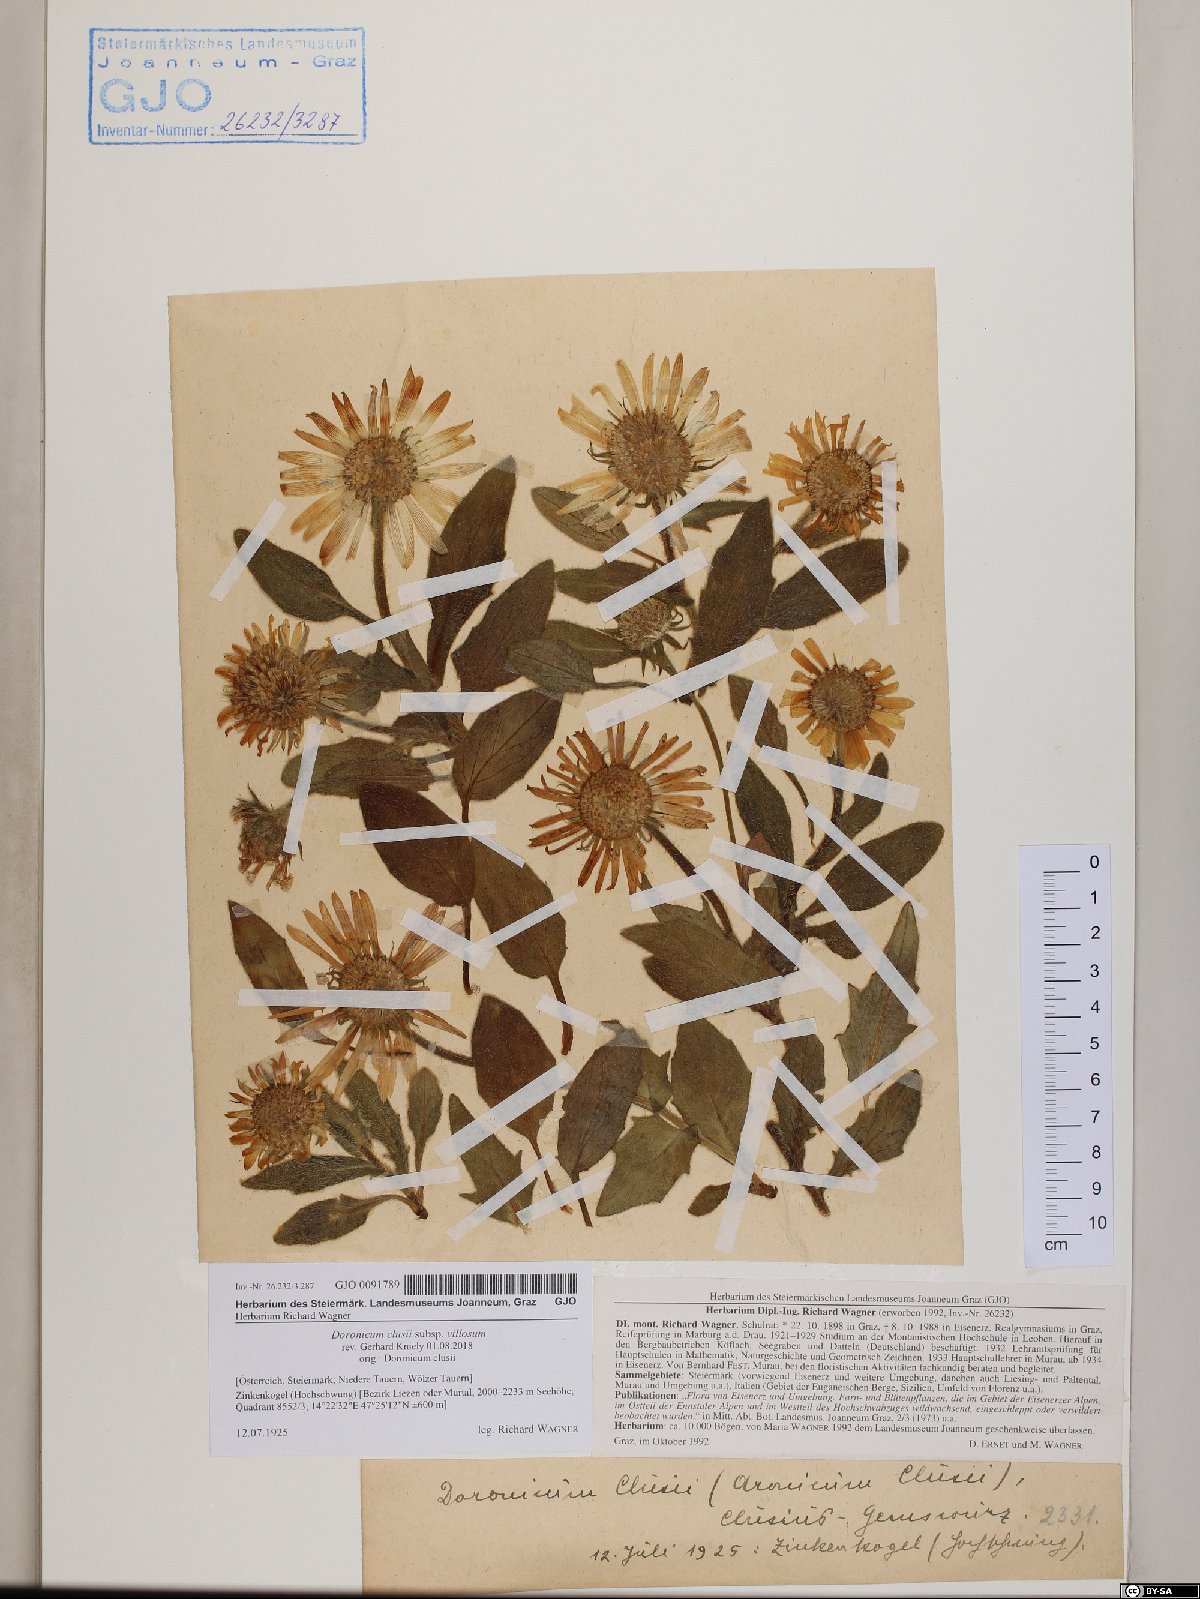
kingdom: Plantae
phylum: Tracheophyta
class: Magnoliopsida
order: Asterales
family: Asteraceae
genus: Doronicum
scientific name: Doronicum clusii
